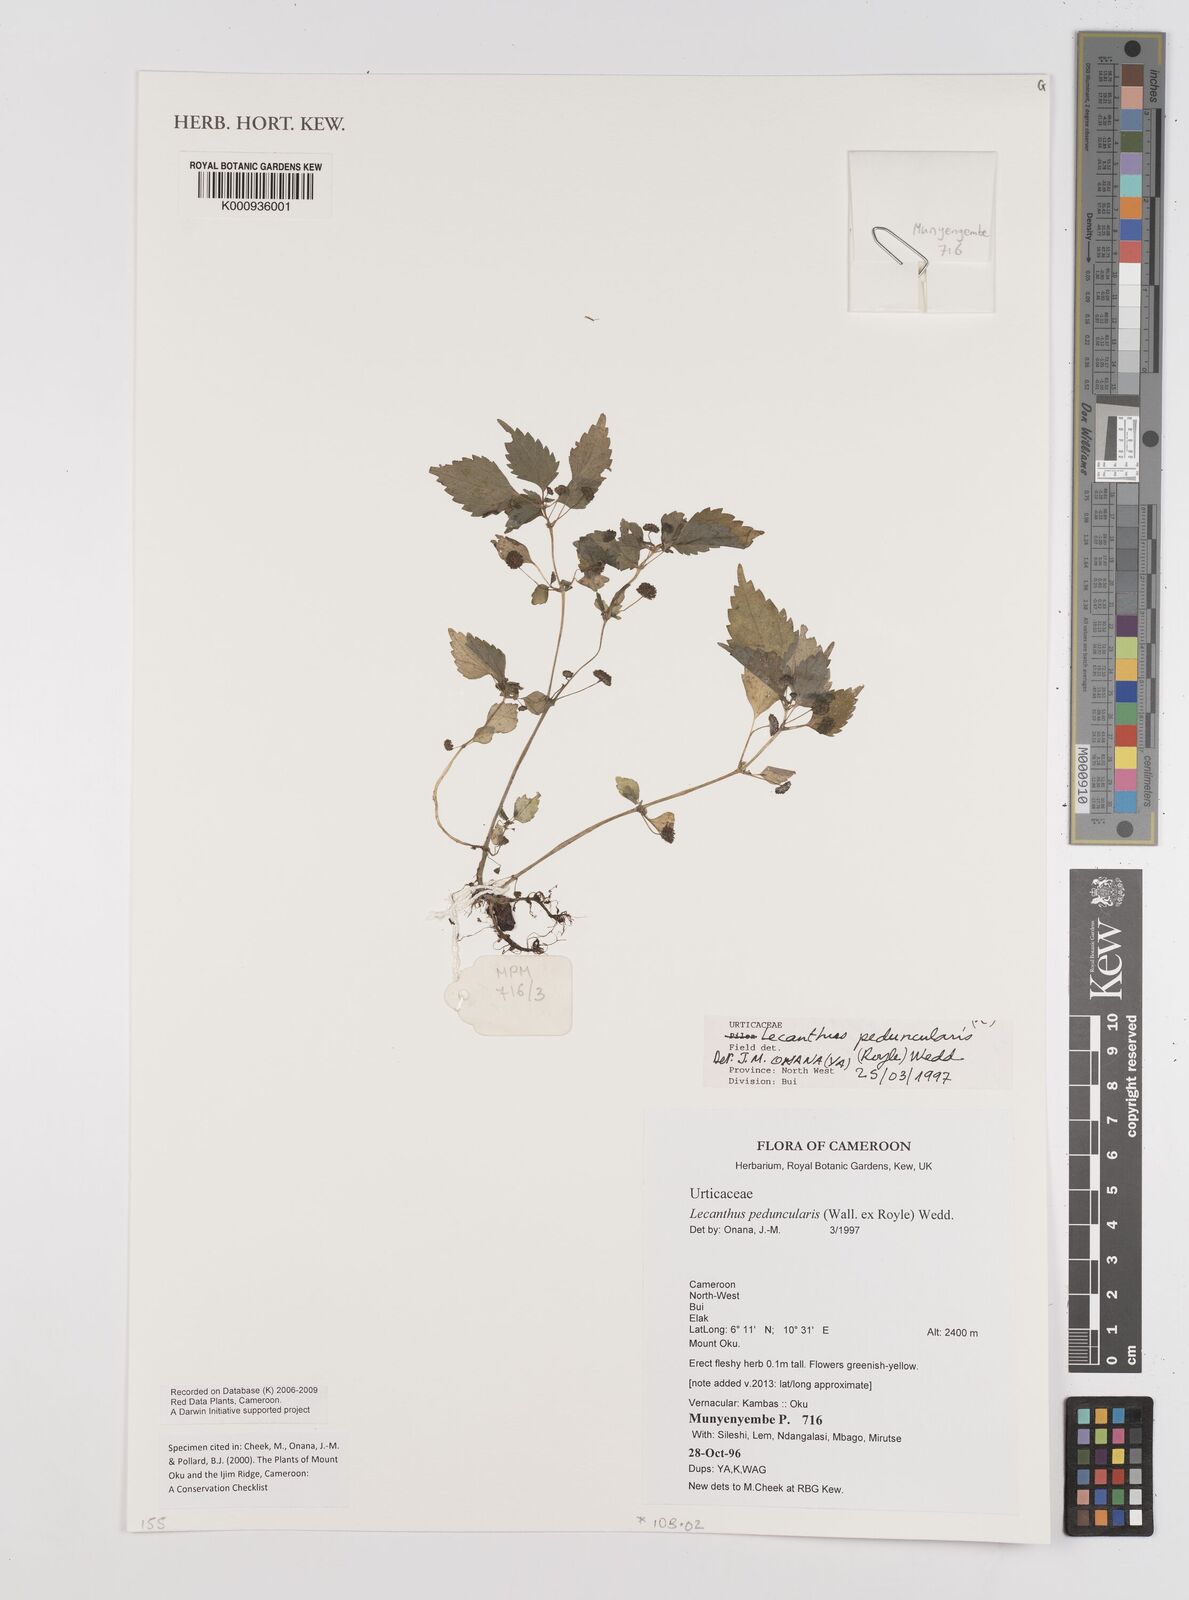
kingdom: Plantae
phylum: Tracheophyta
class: Magnoliopsida
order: Rosales
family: Urticaceae
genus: Lecanthus
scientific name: Lecanthus peduncularis
